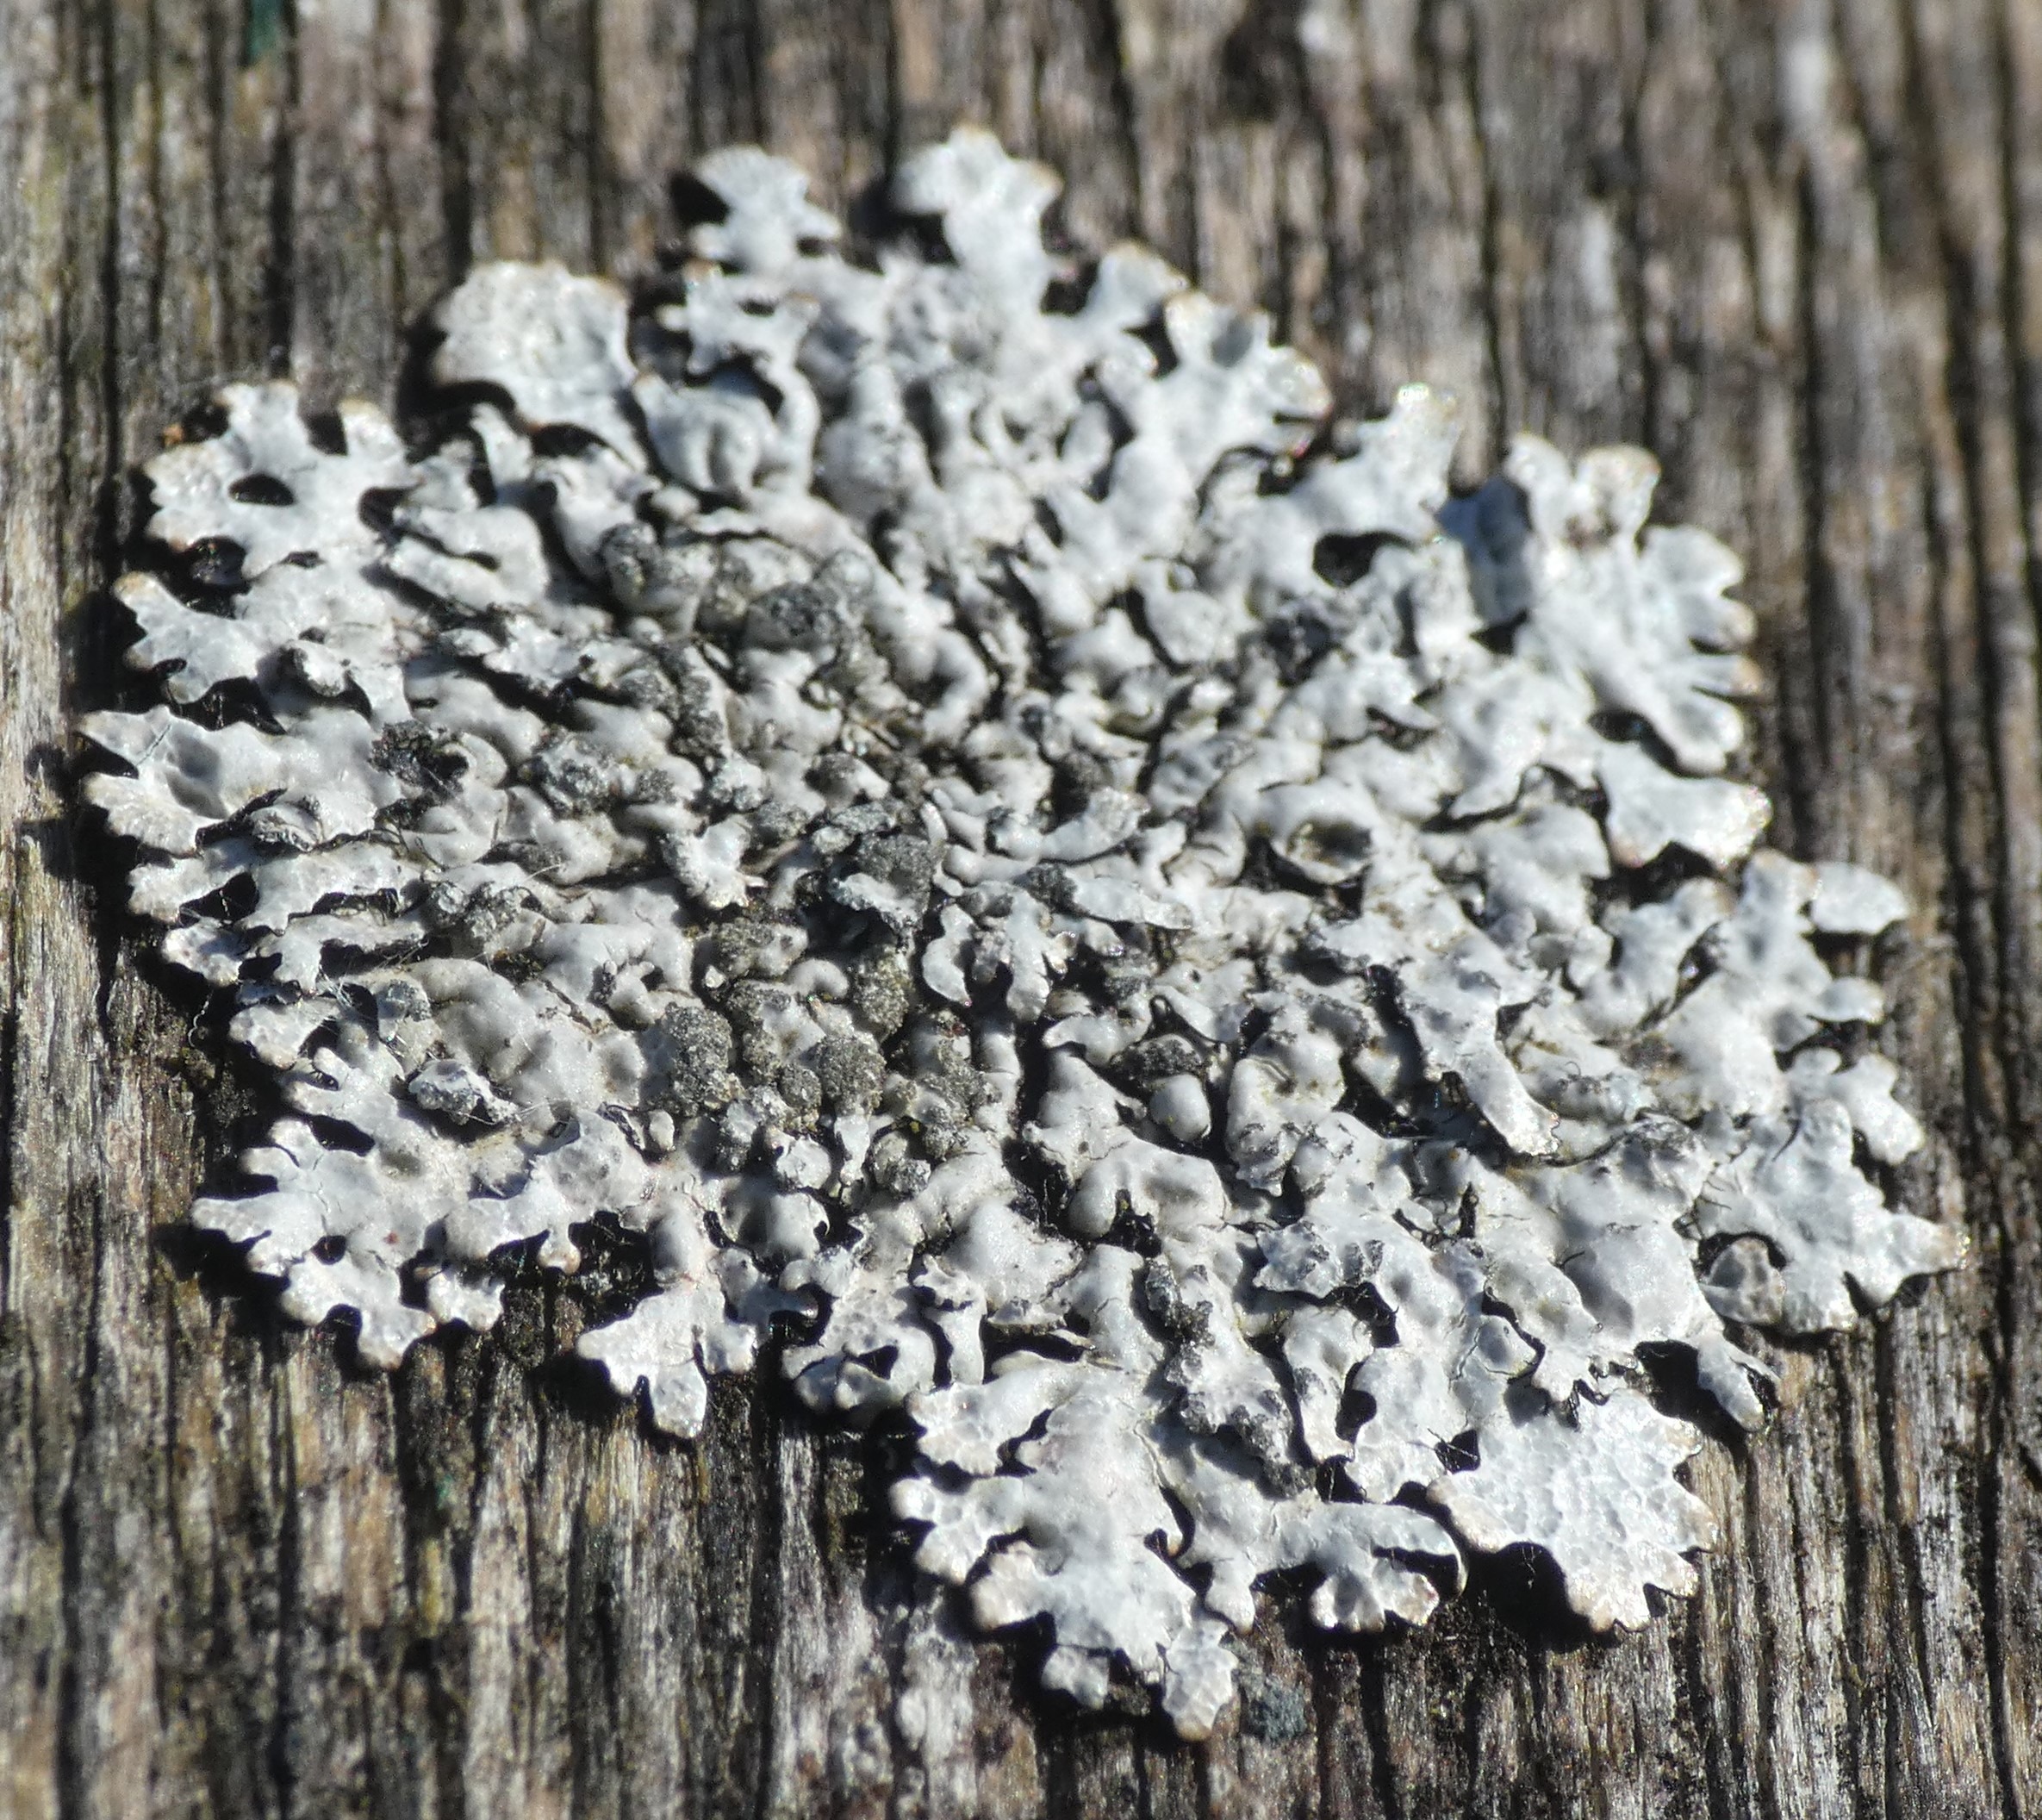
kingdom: Fungi
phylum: Ascomycota
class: Lecanoromycetes
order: Lecanorales
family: Parmeliaceae
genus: Parmelia
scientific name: Parmelia sulcata
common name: Rynket skållav
